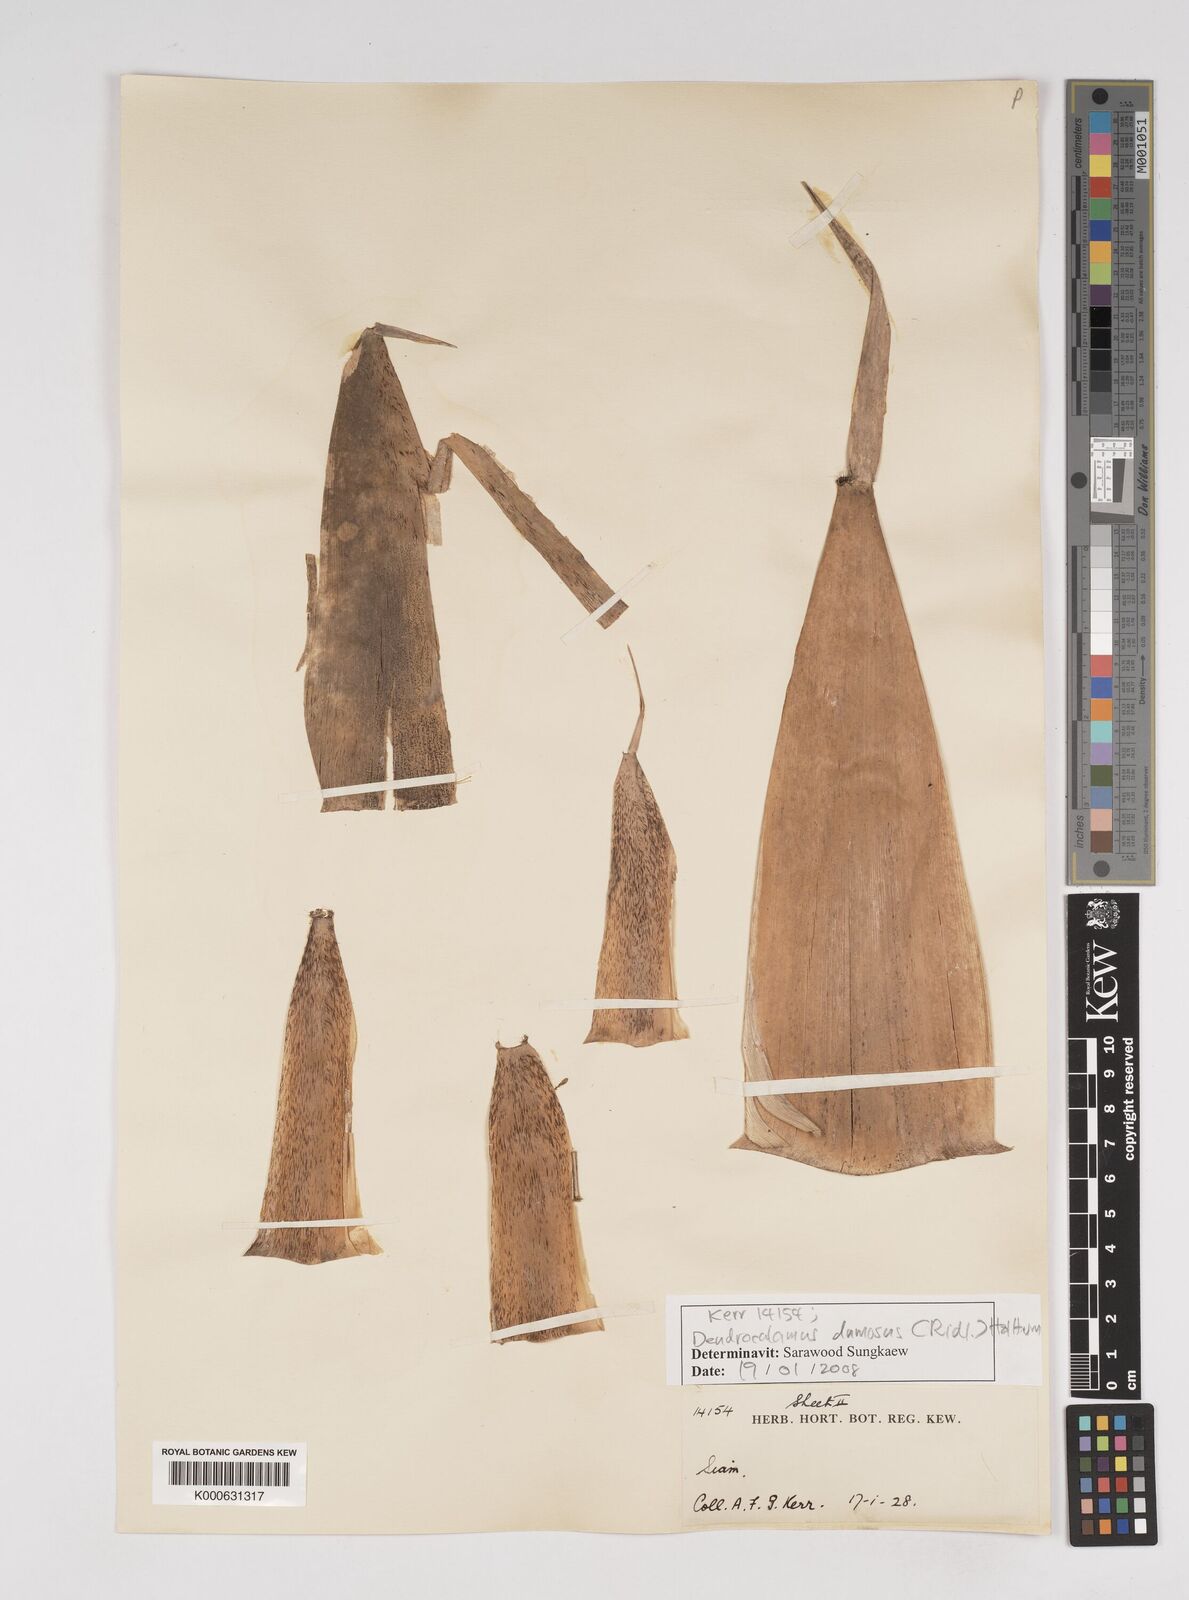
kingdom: Plantae
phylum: Tracheophyta
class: Liliopsida
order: Poales
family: Poaceae
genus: Dendrocalamus
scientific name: Dendrocalamus dumosus
